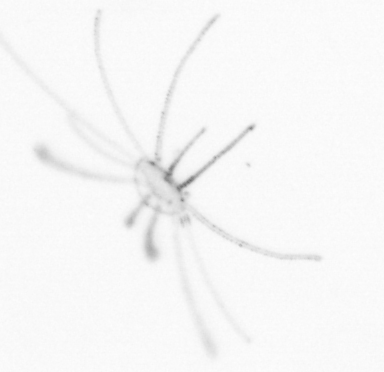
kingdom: Animalia
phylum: Cnidaria
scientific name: Cnidaria
